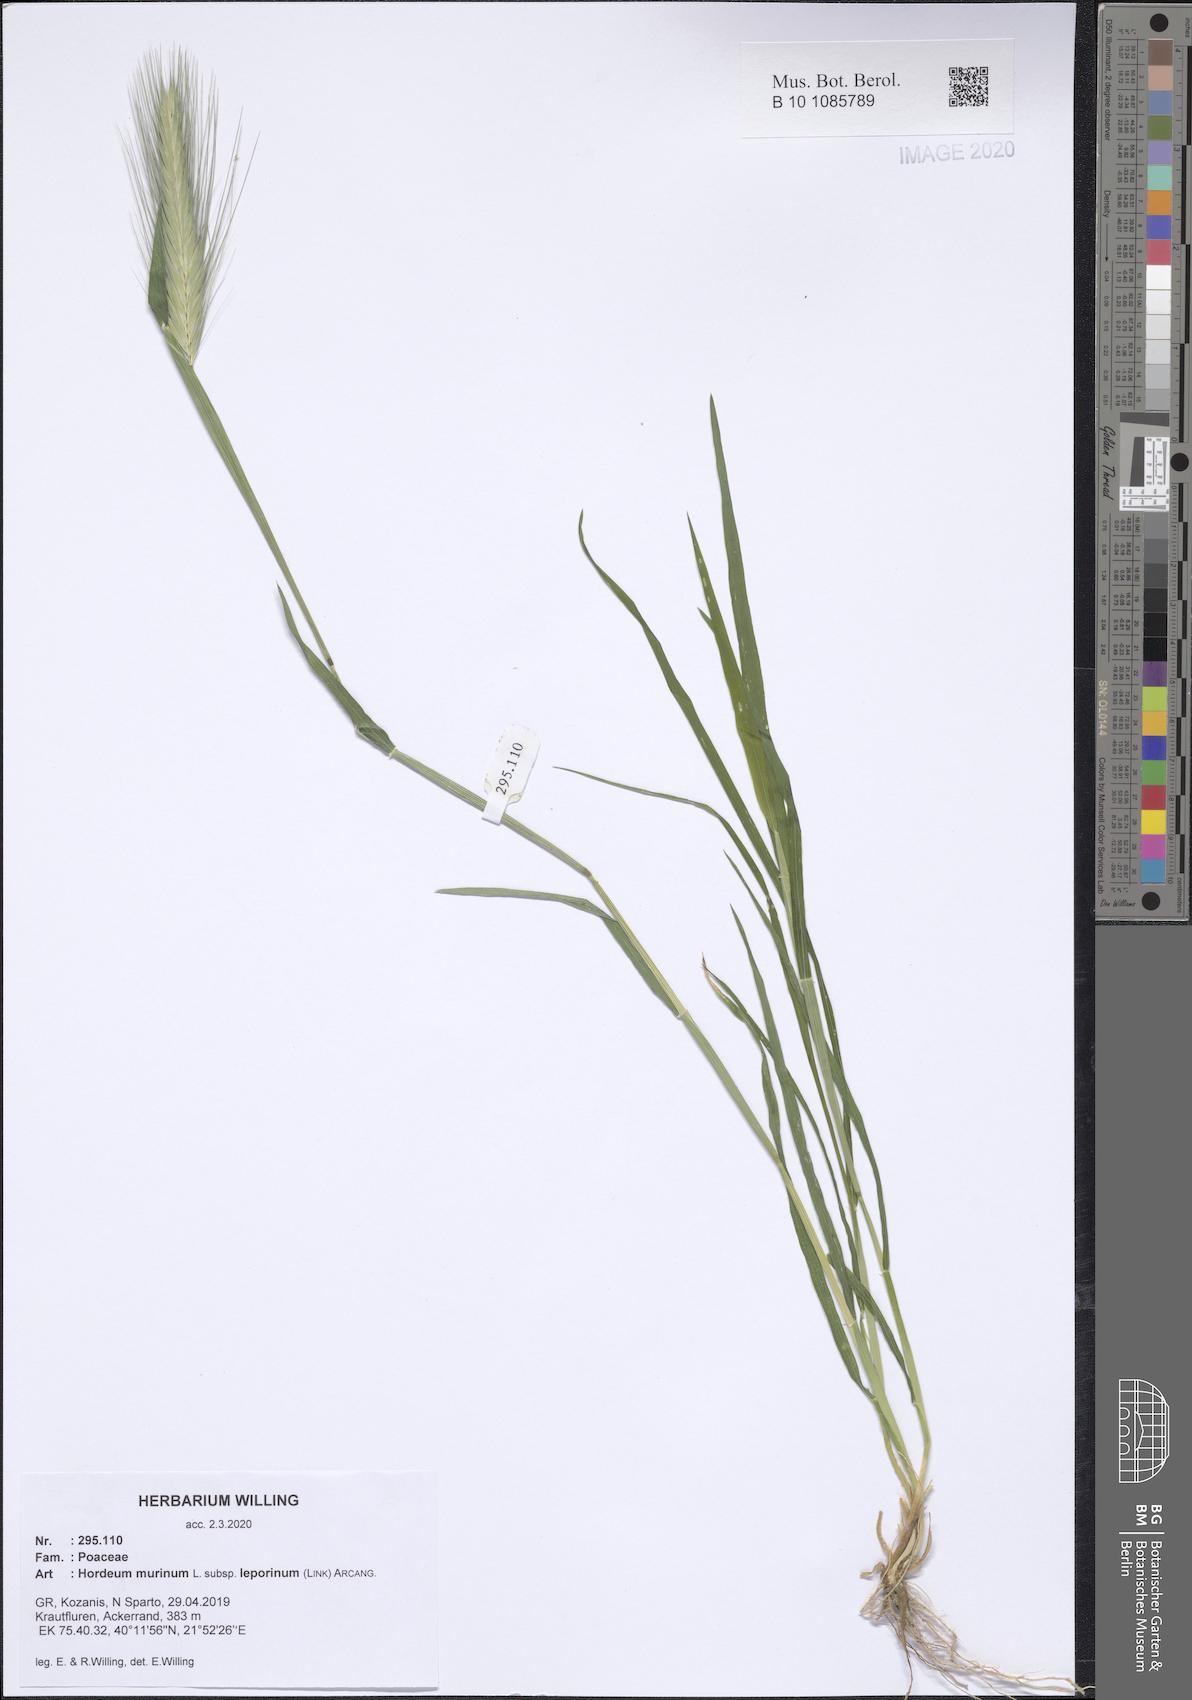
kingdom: Plantae
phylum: Tracheophyta
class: Liliopsida
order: Poales
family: Poaceae
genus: Hordeum
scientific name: Hordeum murinum
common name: Wall barley
